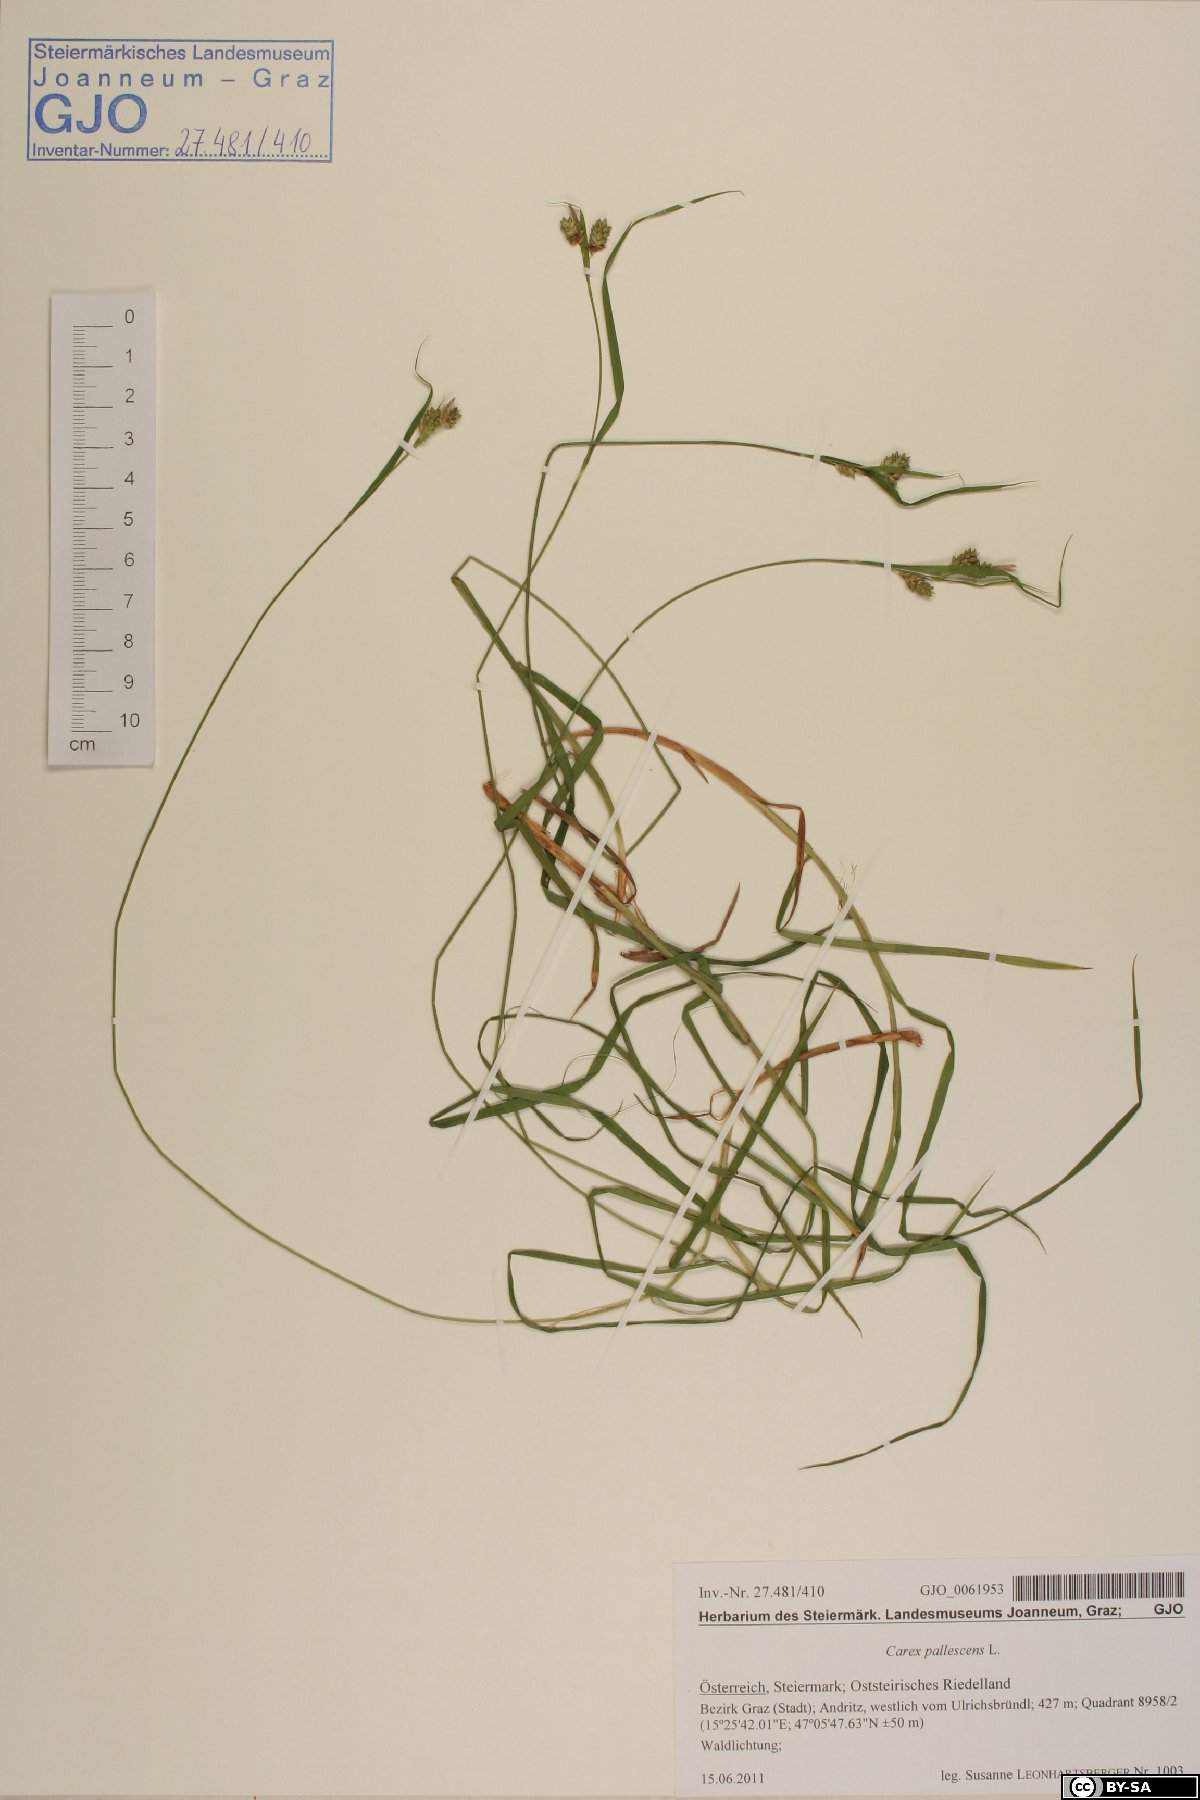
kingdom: Plantae
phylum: Tracheophyta
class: Liliopsida
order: Poales
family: Cyperaceae
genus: Carex
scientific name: Carex pallescens
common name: Pale sedge
